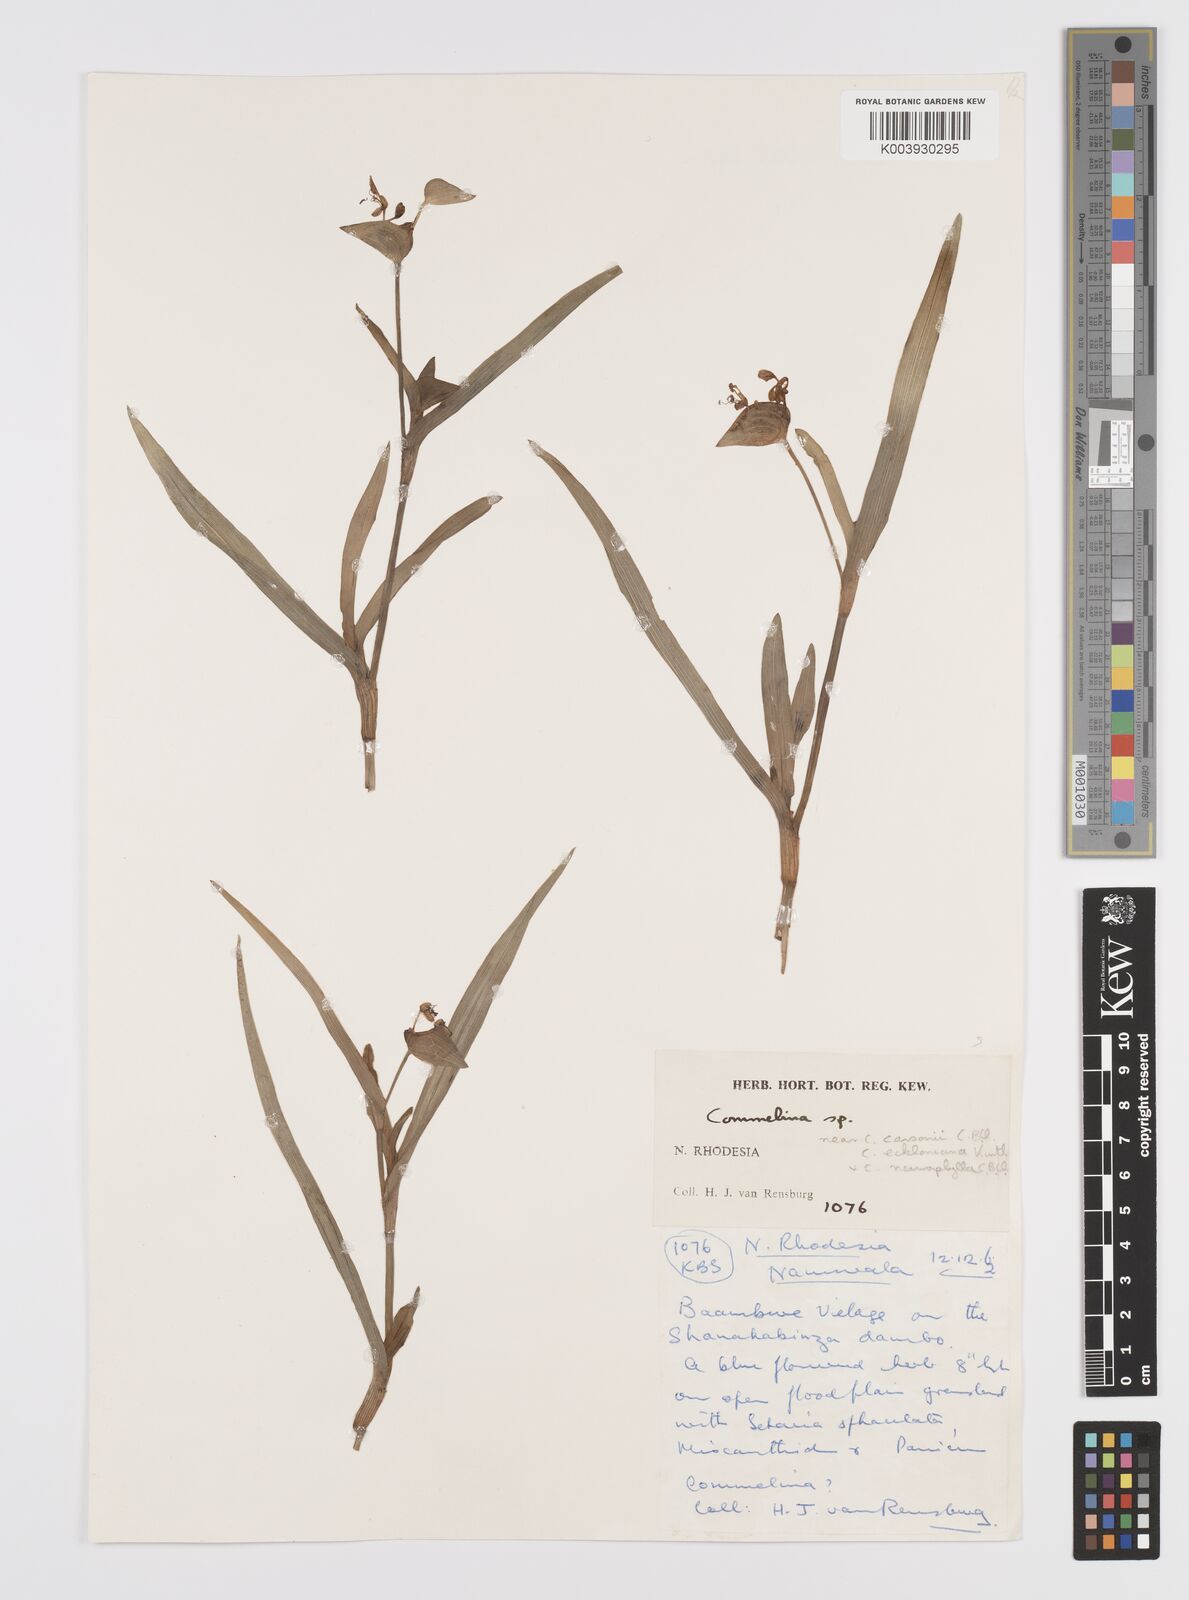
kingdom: Plantae
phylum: Tracheophyta
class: Liliopsida
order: Commelinales
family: Commelinaceae
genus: Commelina
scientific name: Commelina schweinfurthii
